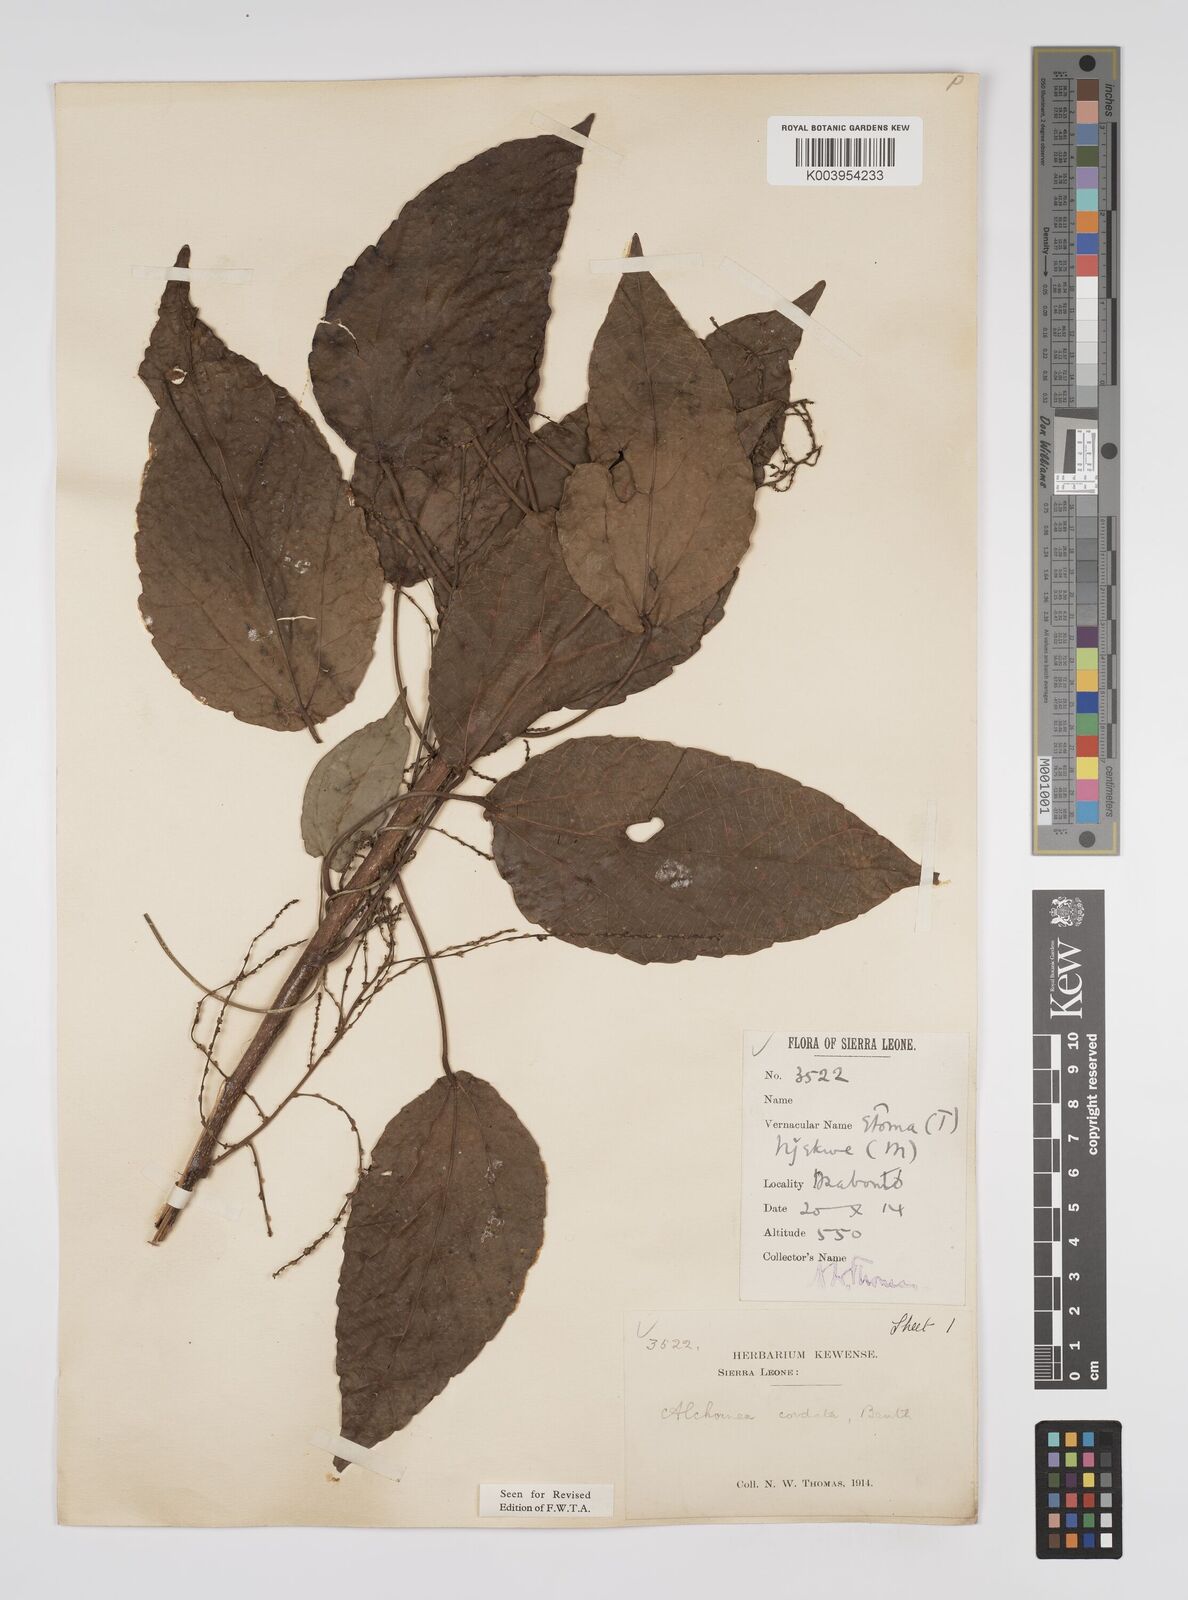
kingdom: Plantae
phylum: Tracheophyta
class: Magnoliopsida
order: Malpighiales
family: Euphorbiaceae
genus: Alchornea
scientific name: Alchornea cordifolia
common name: Christmasbush
